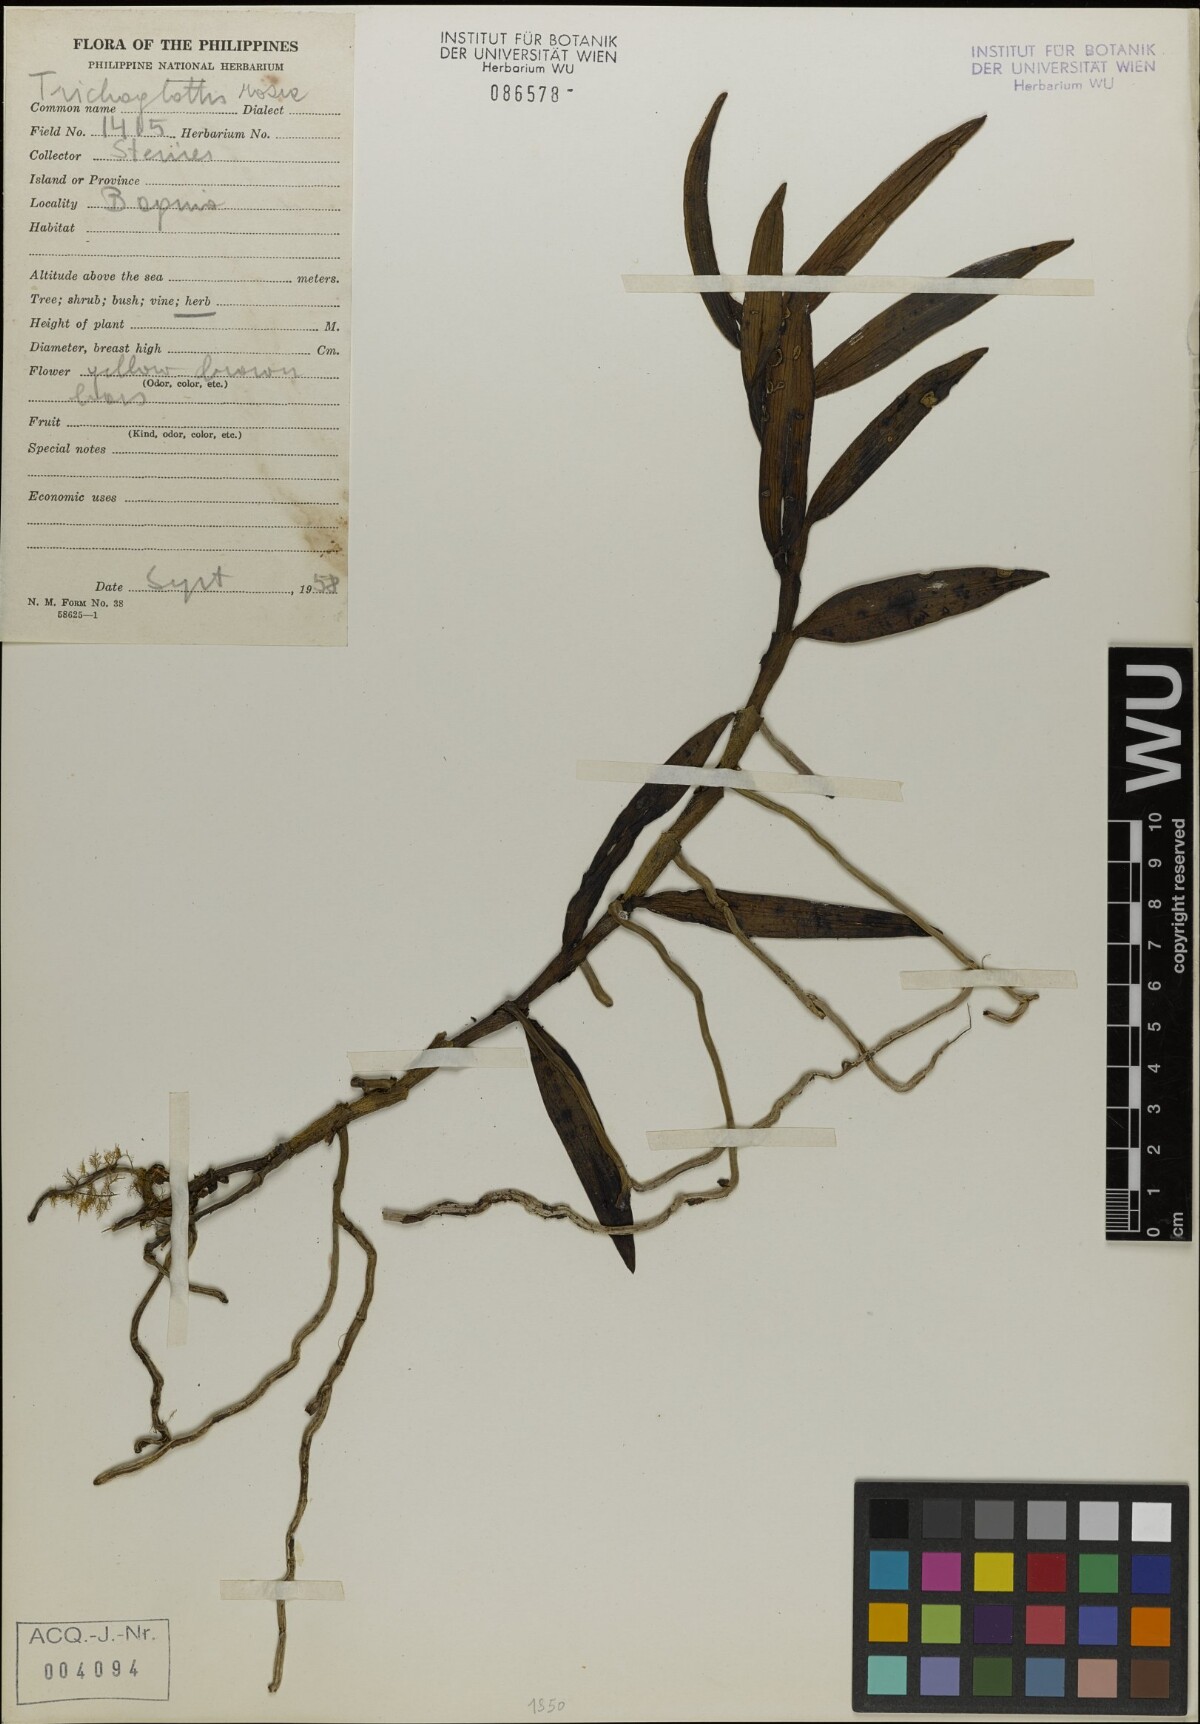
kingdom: Plantae
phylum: Tracheophyta
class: Liliopsida
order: Asparagales
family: Orchidaceae
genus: Trichoglottis
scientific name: Trichoglottis rosea
